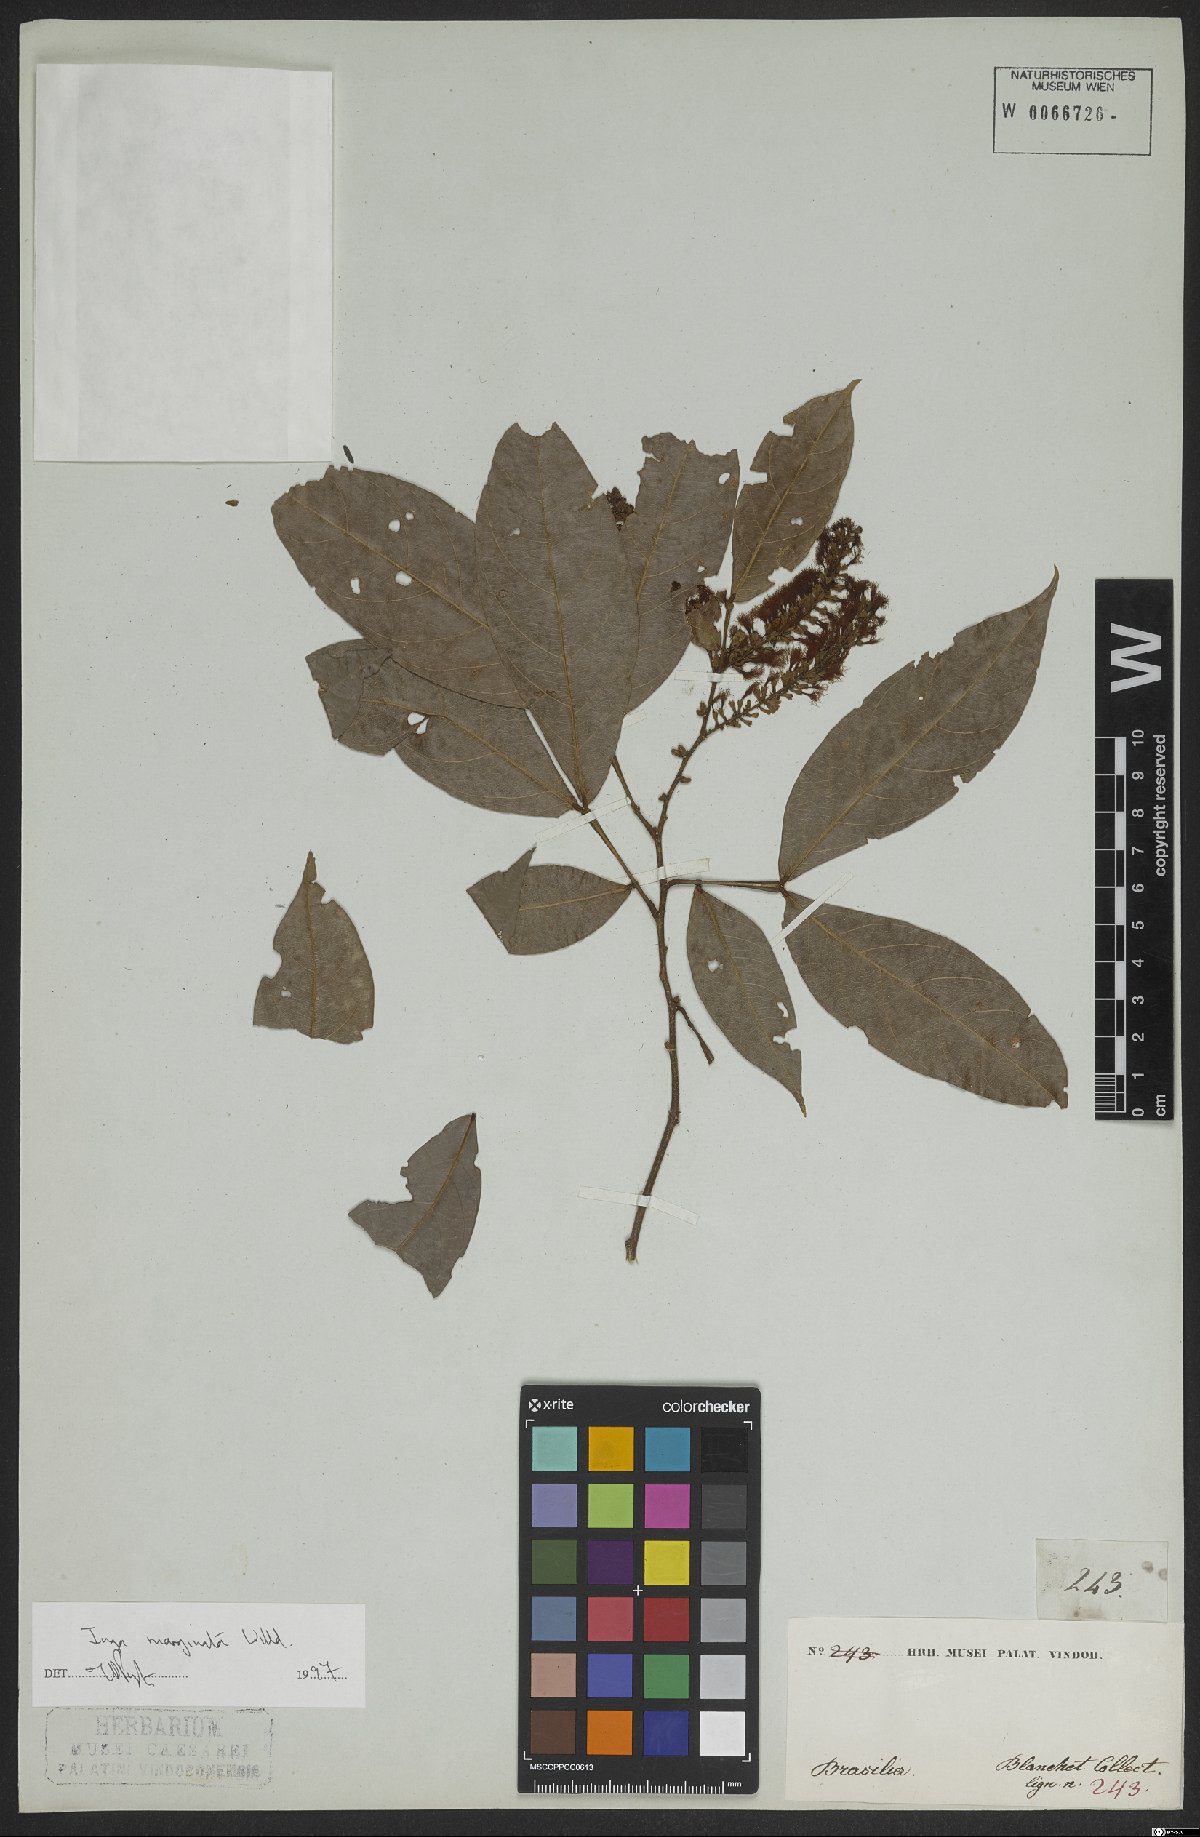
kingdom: Plantae
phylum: Tracheophyta
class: Magnoliopsida
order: Fabales
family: Fabaceae
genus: Inga
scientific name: Inga marginata
